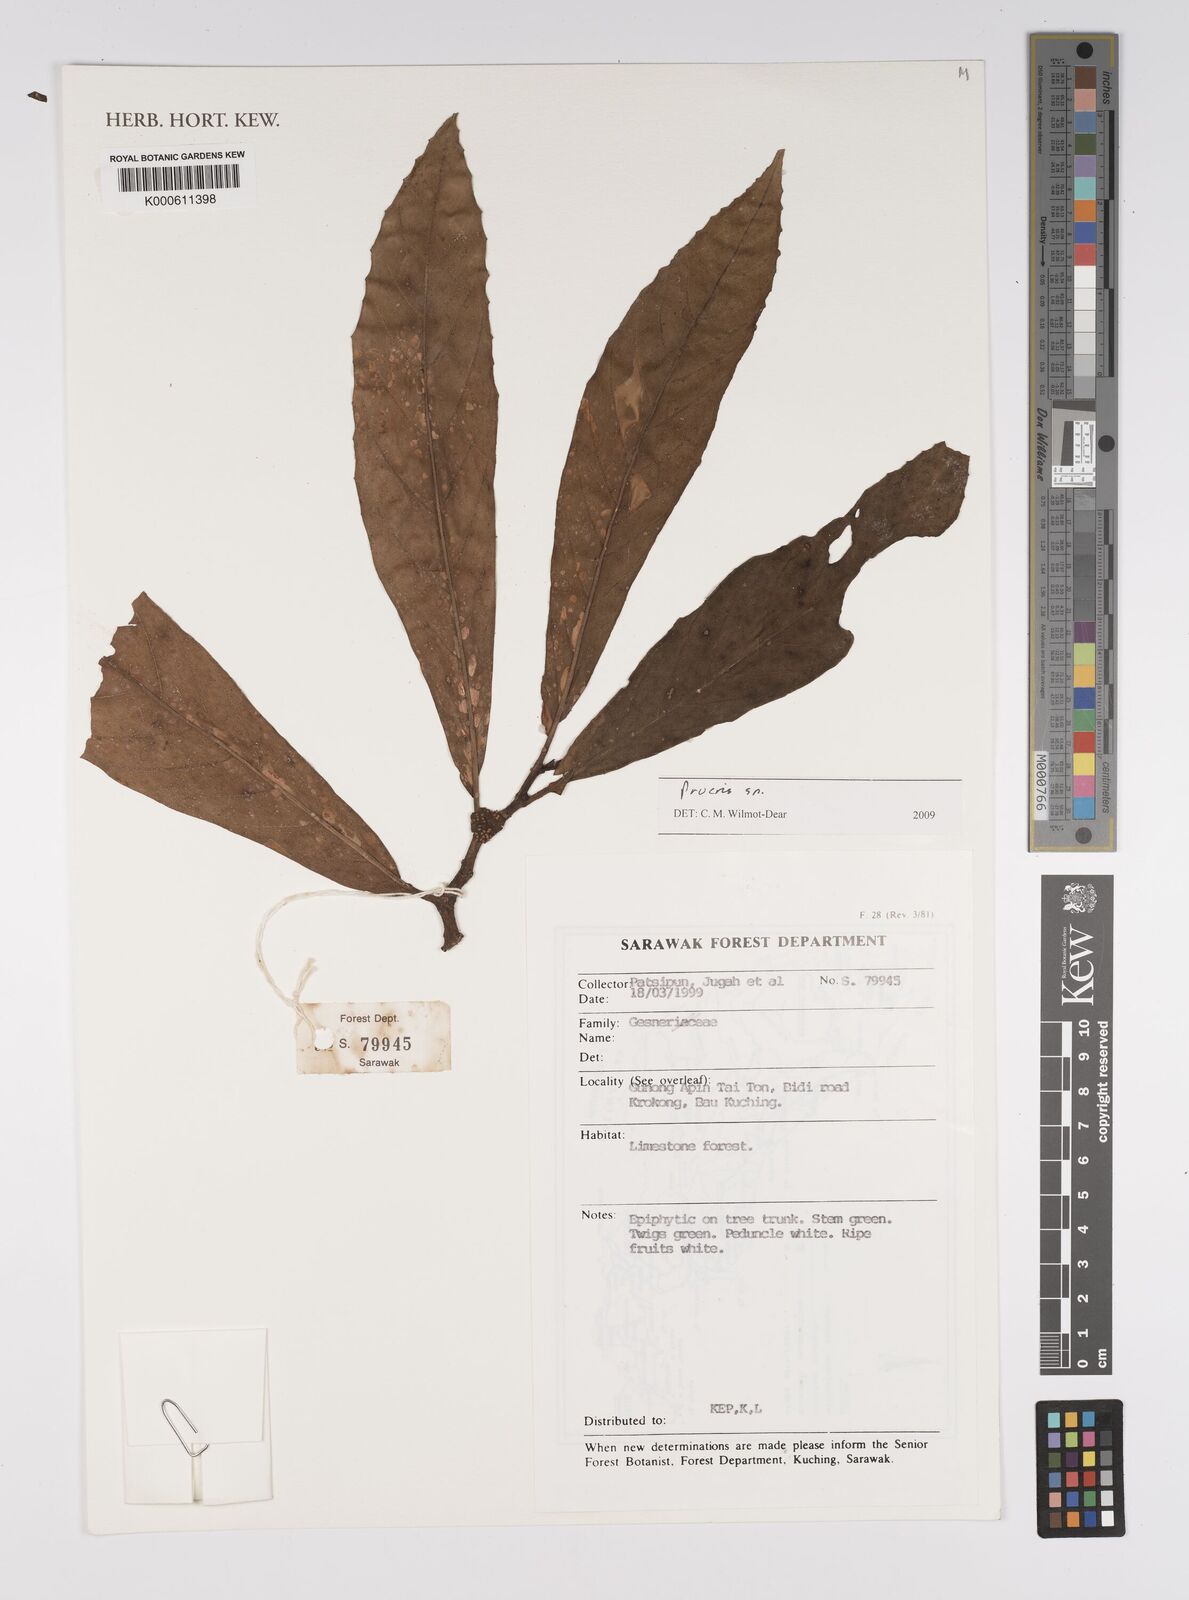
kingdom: Plantae
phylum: Tracheophyta
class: Magnoliopsida
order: Rosales
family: Urticaceae
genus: Procris
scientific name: Procris
